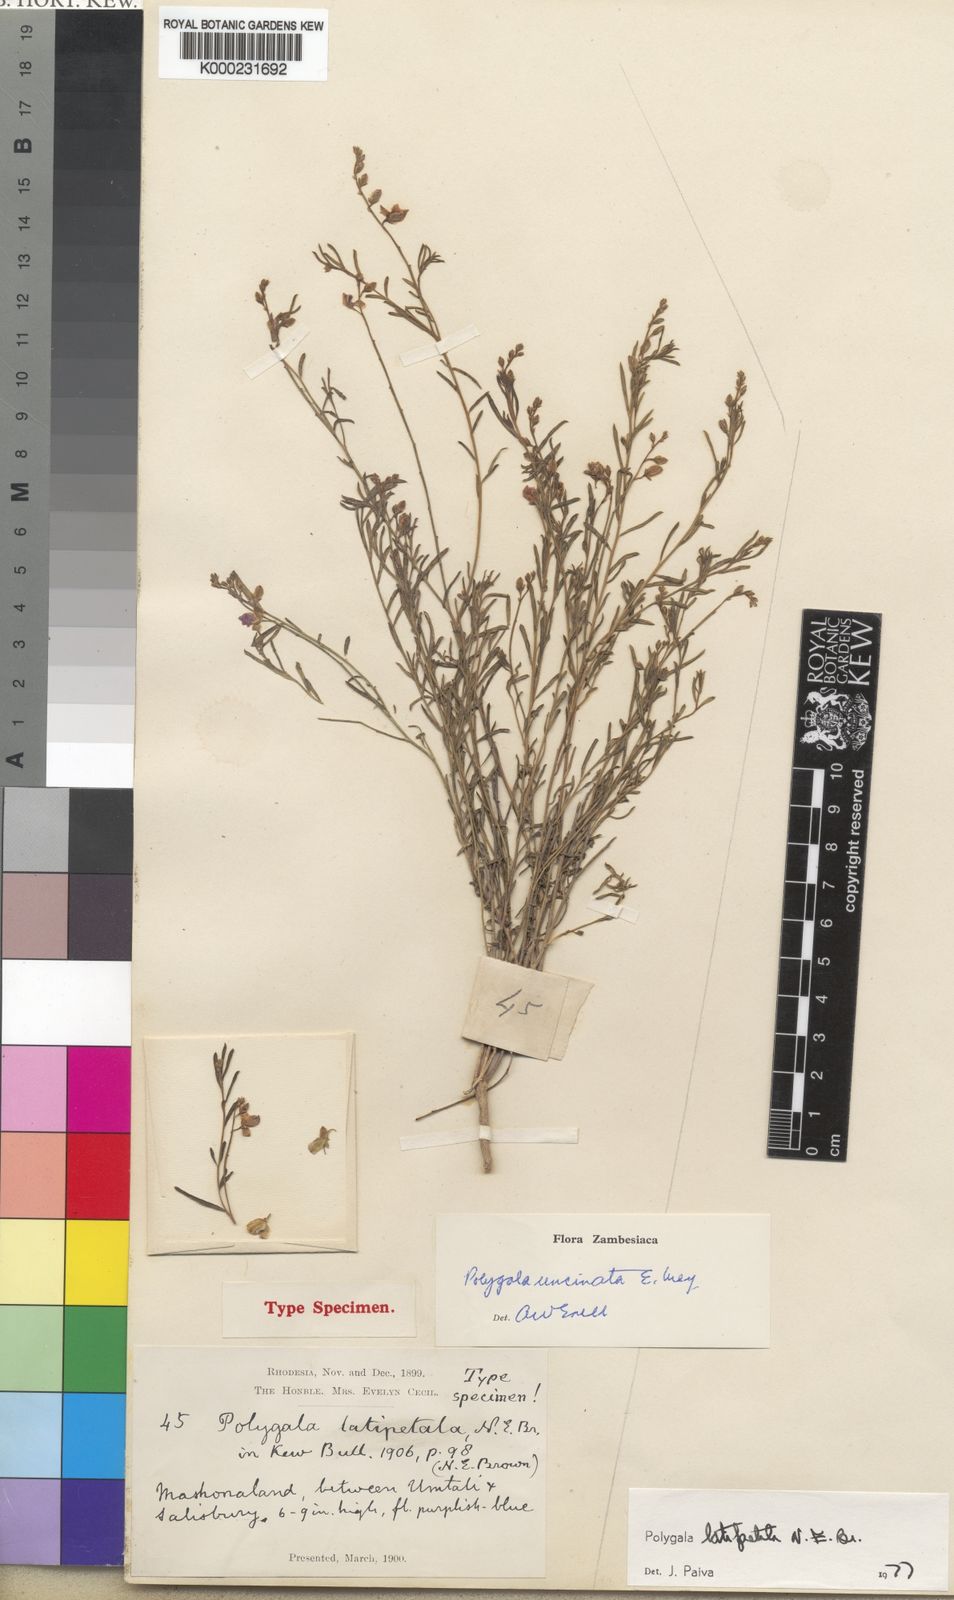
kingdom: Plantae
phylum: Tracheophyta
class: Magnoliopsida
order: Fabales
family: Polygalaceae
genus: Polygala
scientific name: Polygala uncinata
